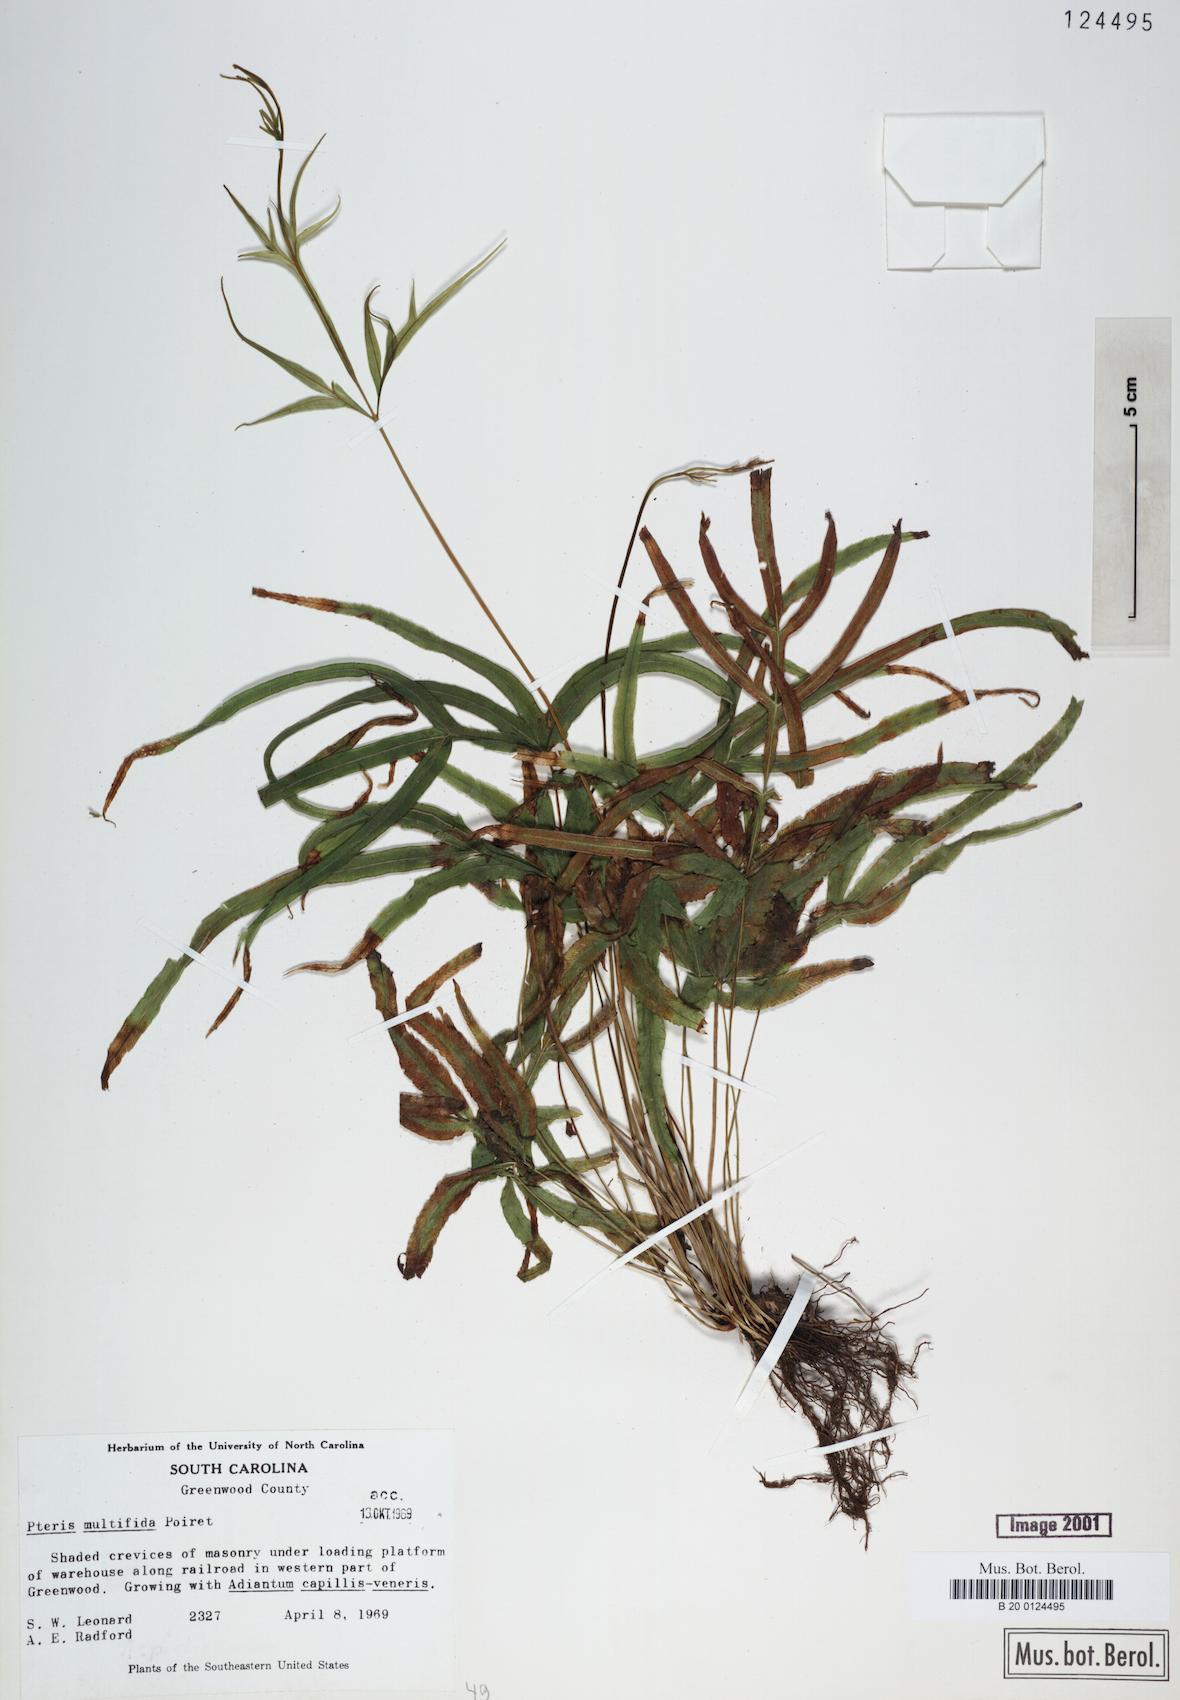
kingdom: Plantae
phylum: Tracheophyta
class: Polypodiopsida
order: Polypodiales
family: Pteridaceae
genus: Pteris
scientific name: Pteris multifida
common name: Spider brake
